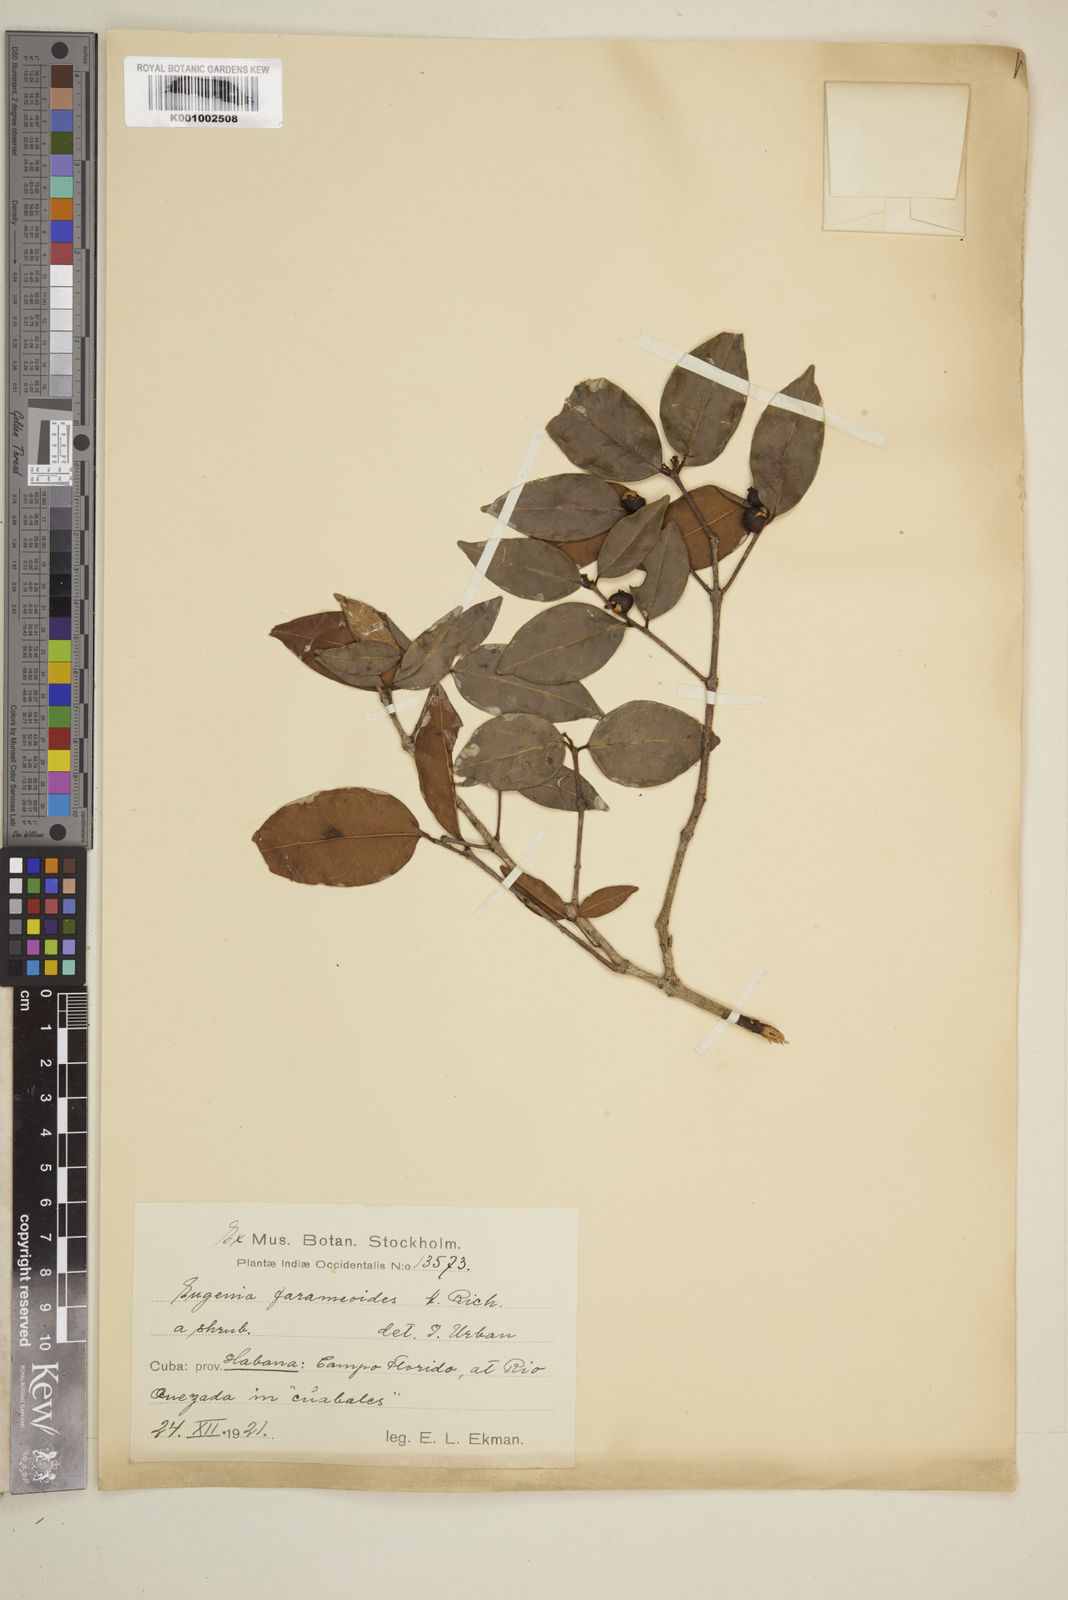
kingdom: Plantae
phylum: Tracheophyta
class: Magnoliopsida
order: Myrtales
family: Myrtaceae
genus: Eugenia
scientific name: Eugenia farameoides
